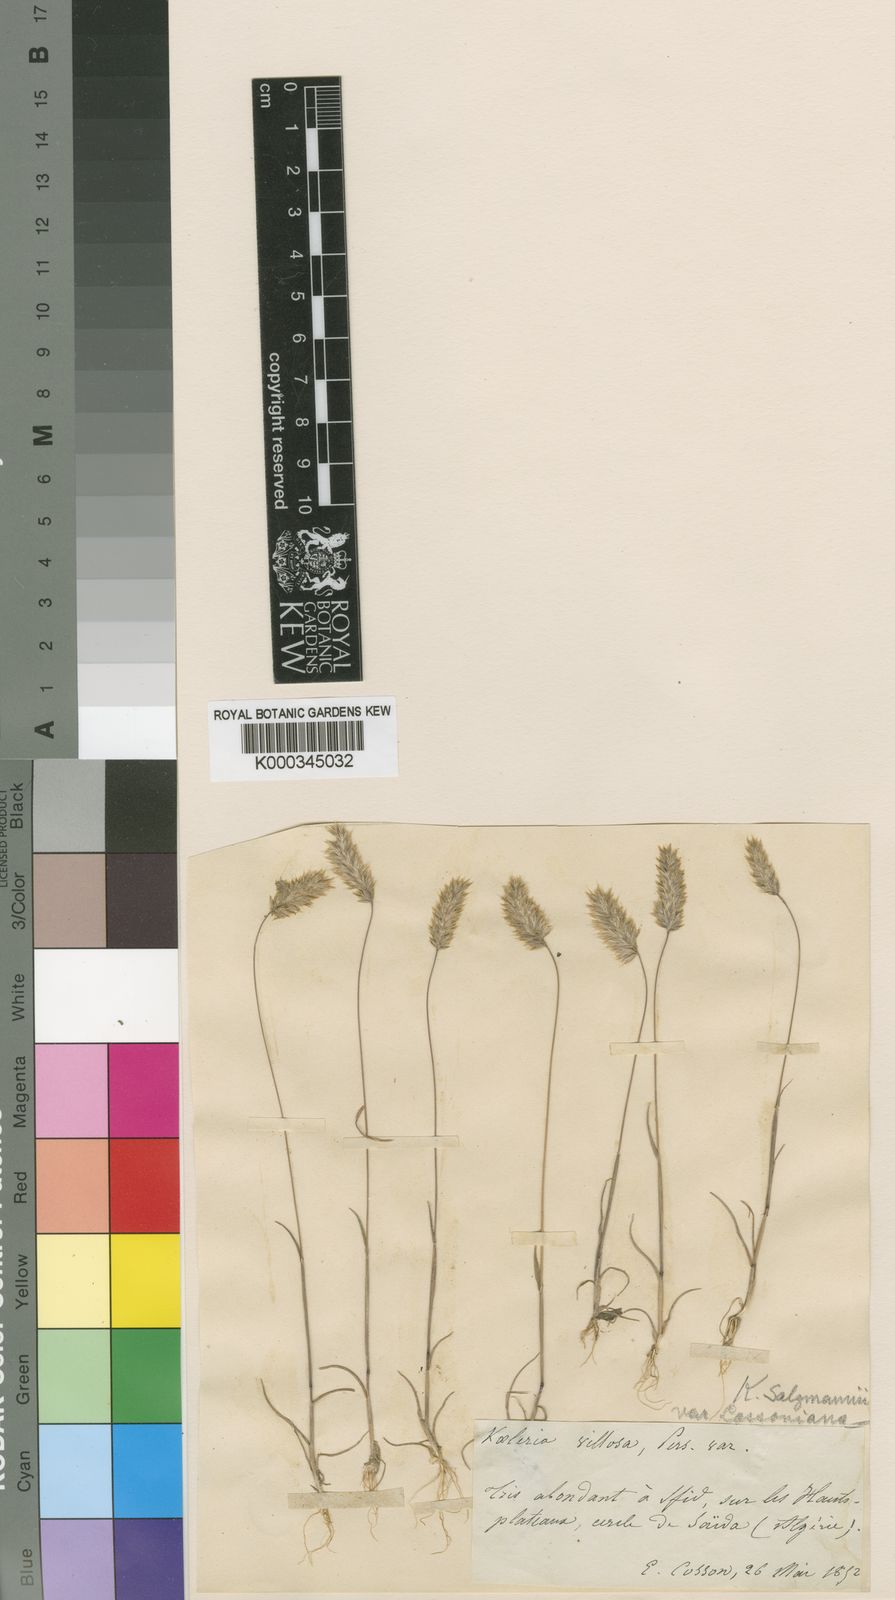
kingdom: Plantae
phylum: Tracheophyta
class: Liliopsida
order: Poales
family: Poaceae
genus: Rostraria
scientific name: Rostraria salzmannii
